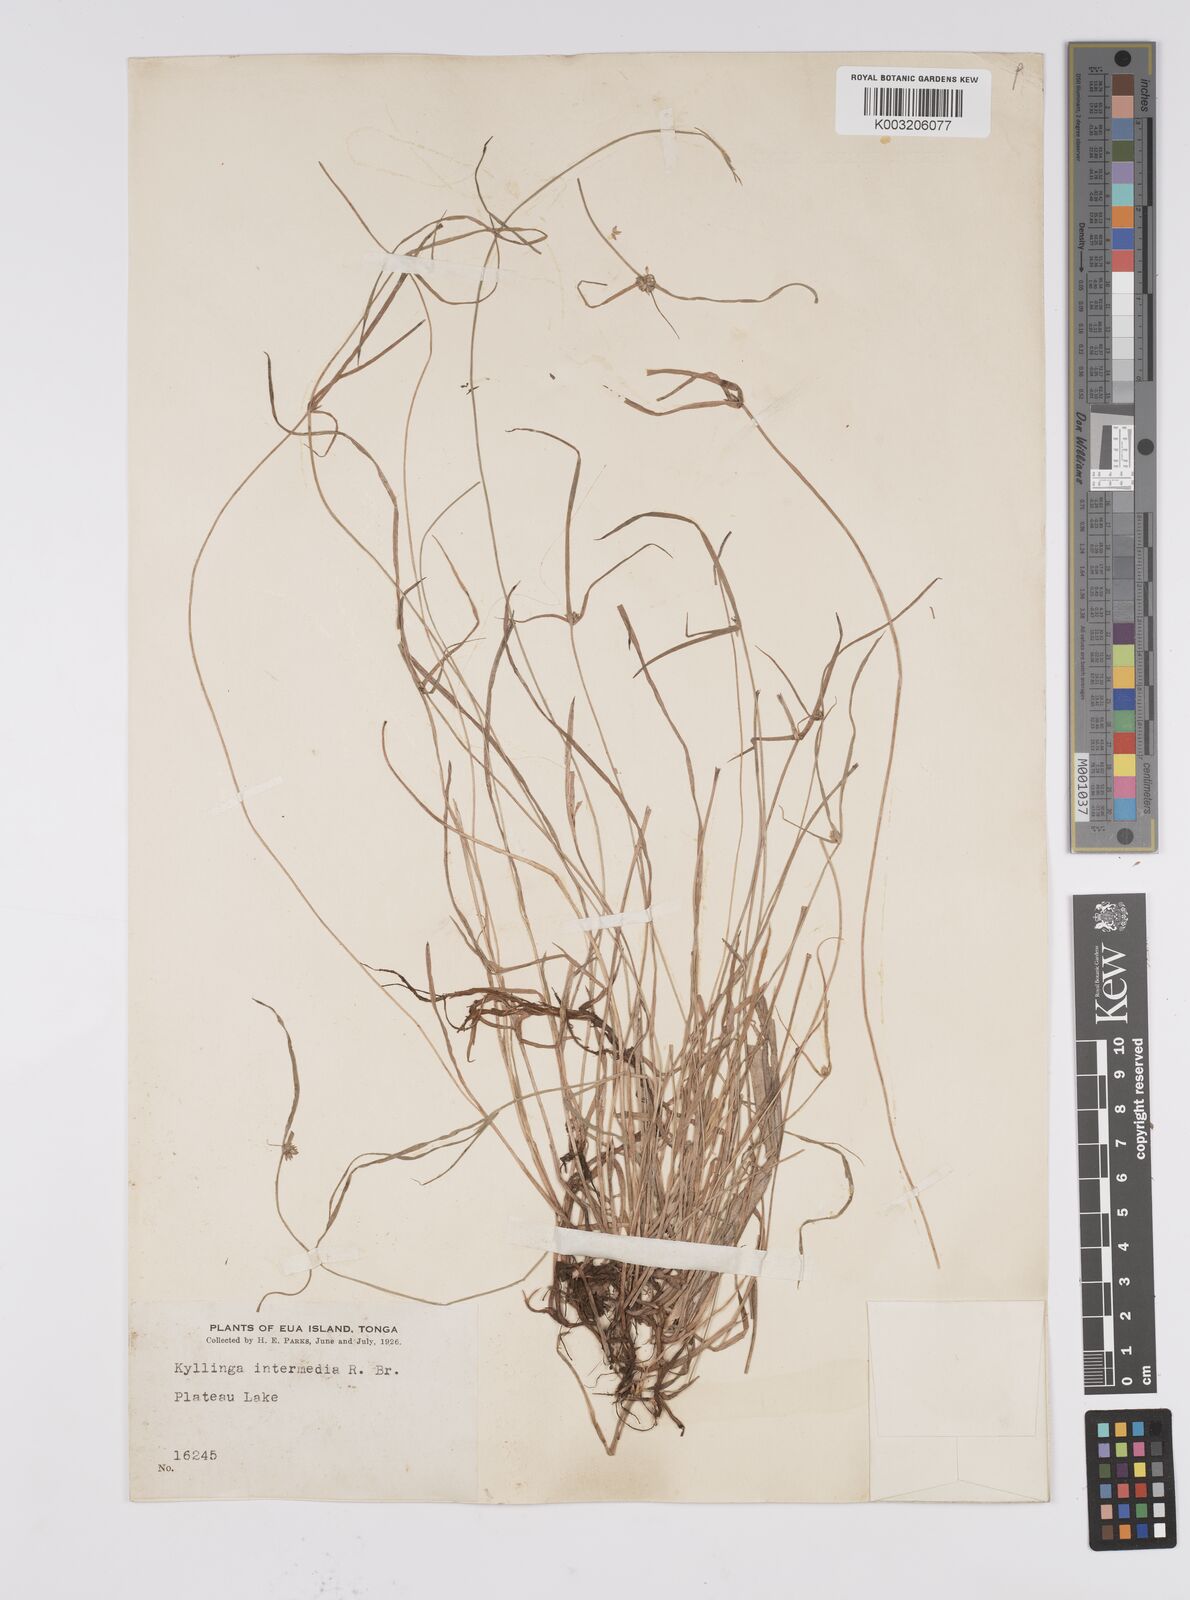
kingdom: Plantae
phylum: Tracheophyta
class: Liliopsida
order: Poales
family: Cyperaceae
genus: Cyperus
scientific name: Cyperus brevifolius
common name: Globe kyllinga
